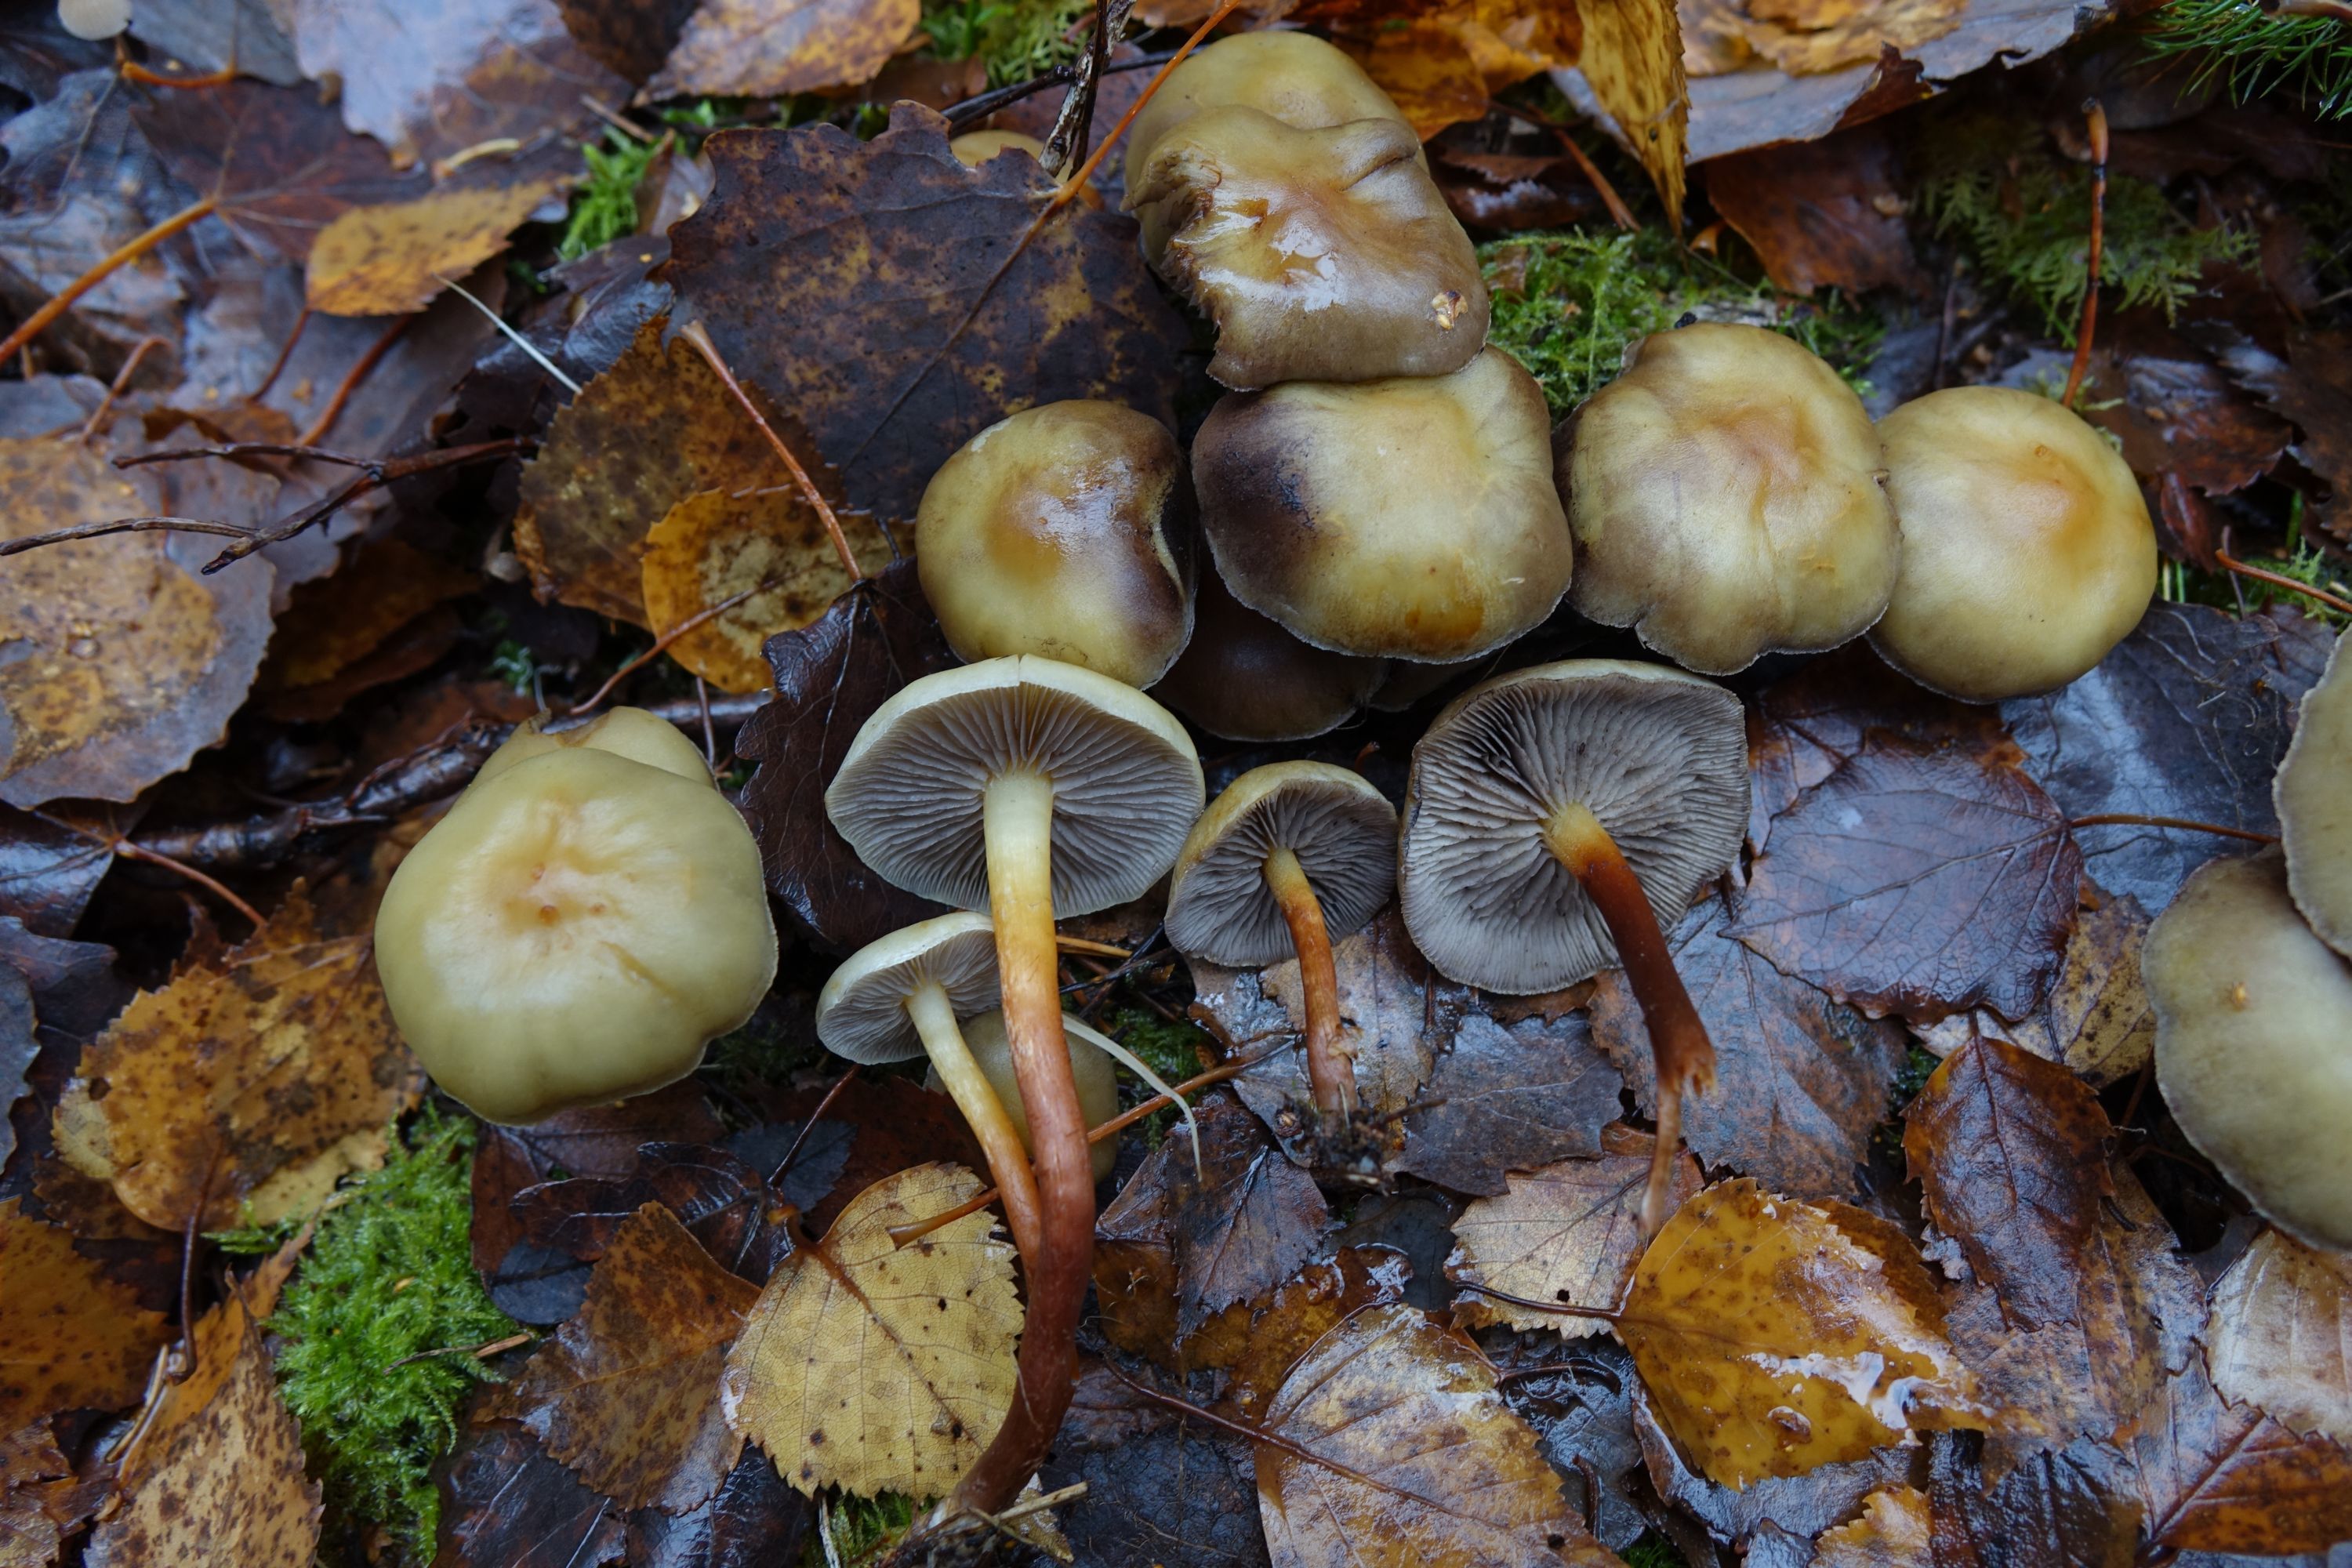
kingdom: Fungi
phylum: Basidiomycota
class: Agaricomycetes
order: Agaricales
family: Strophariaceae
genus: Hypholoma
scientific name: Hypholoma capnoides
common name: Conifer tuft
